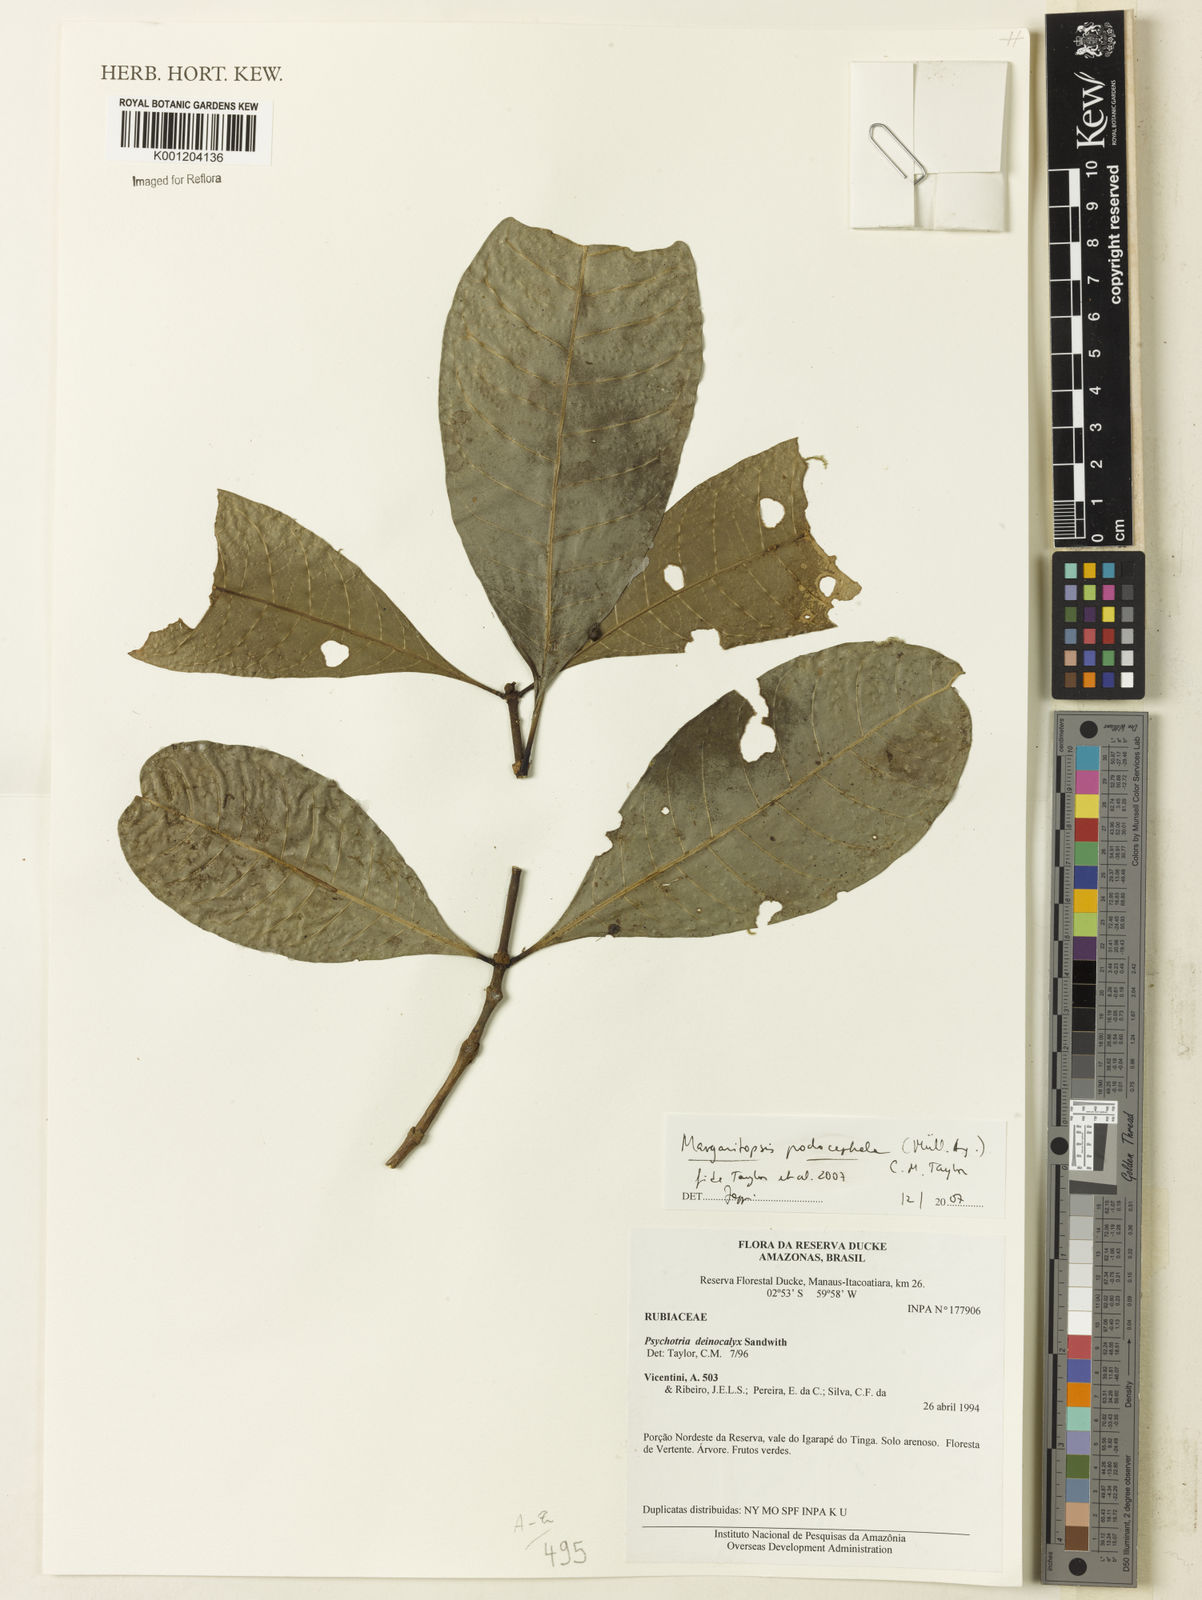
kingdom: Plantae
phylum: Tracheophyta
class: Magnoliopsida
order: Gentianales
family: Rubiaceae
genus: Eumachia
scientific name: Eumachia
